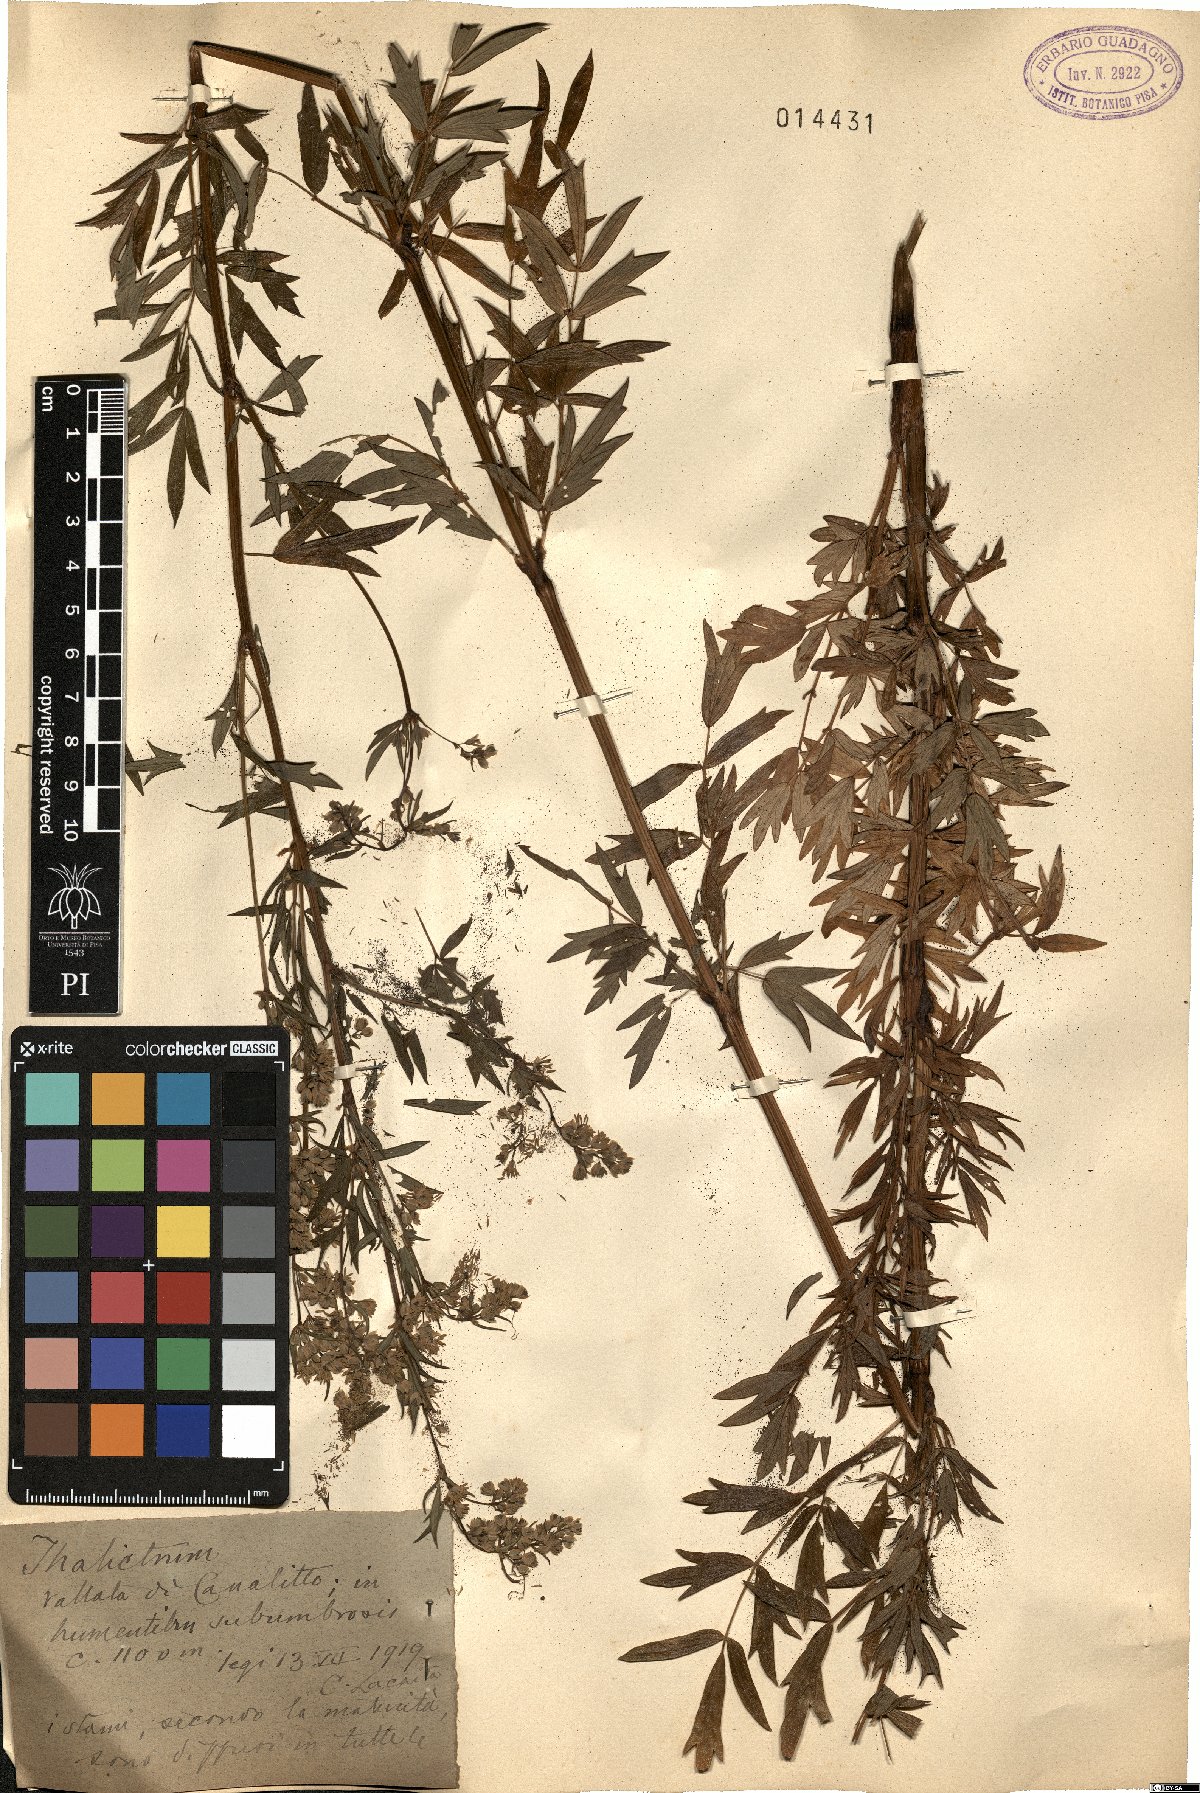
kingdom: Plantae
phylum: Tracheophyta
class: Magnoliopsida
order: Ranunculales
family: Ranunculaceae
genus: Thalictrum
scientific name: Thalictrum
